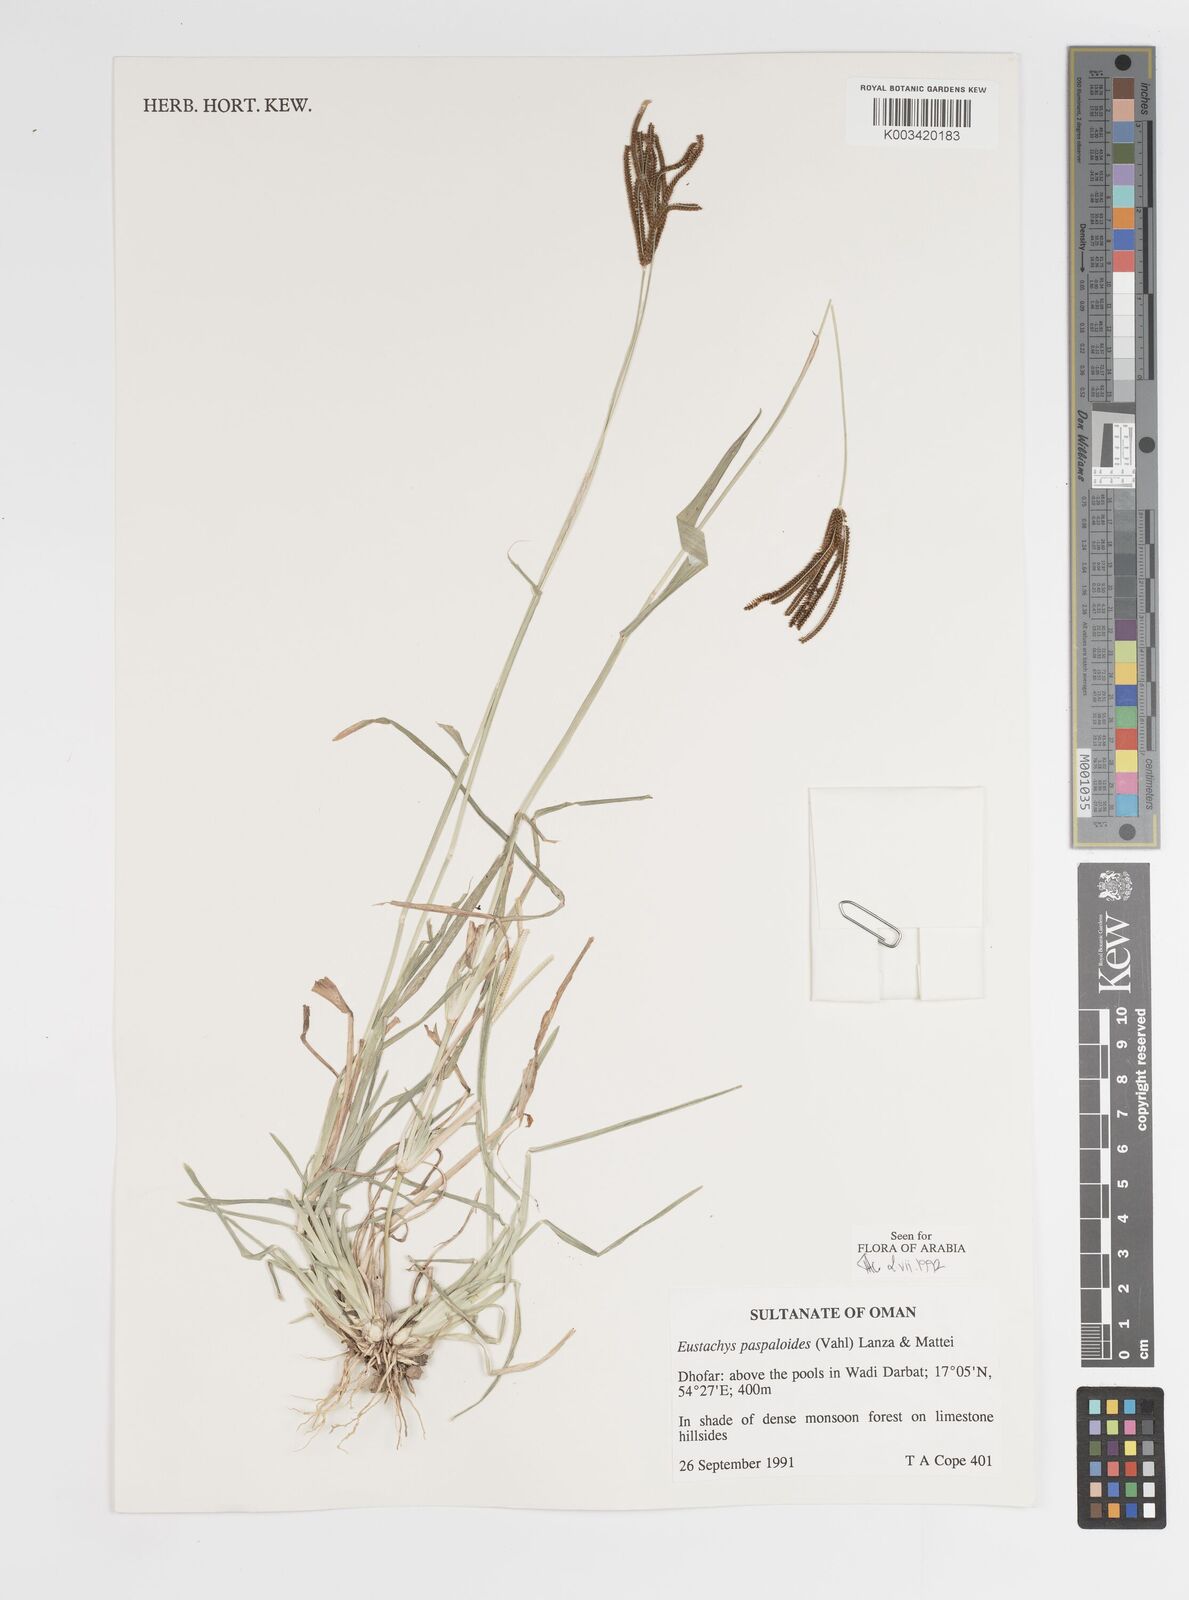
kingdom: Plantae
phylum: Tracheophyta
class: Liliopsida
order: Poales
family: Poaceae
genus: Eustachys
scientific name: Eustachys paspaloides
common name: Caribbean fingergrass
